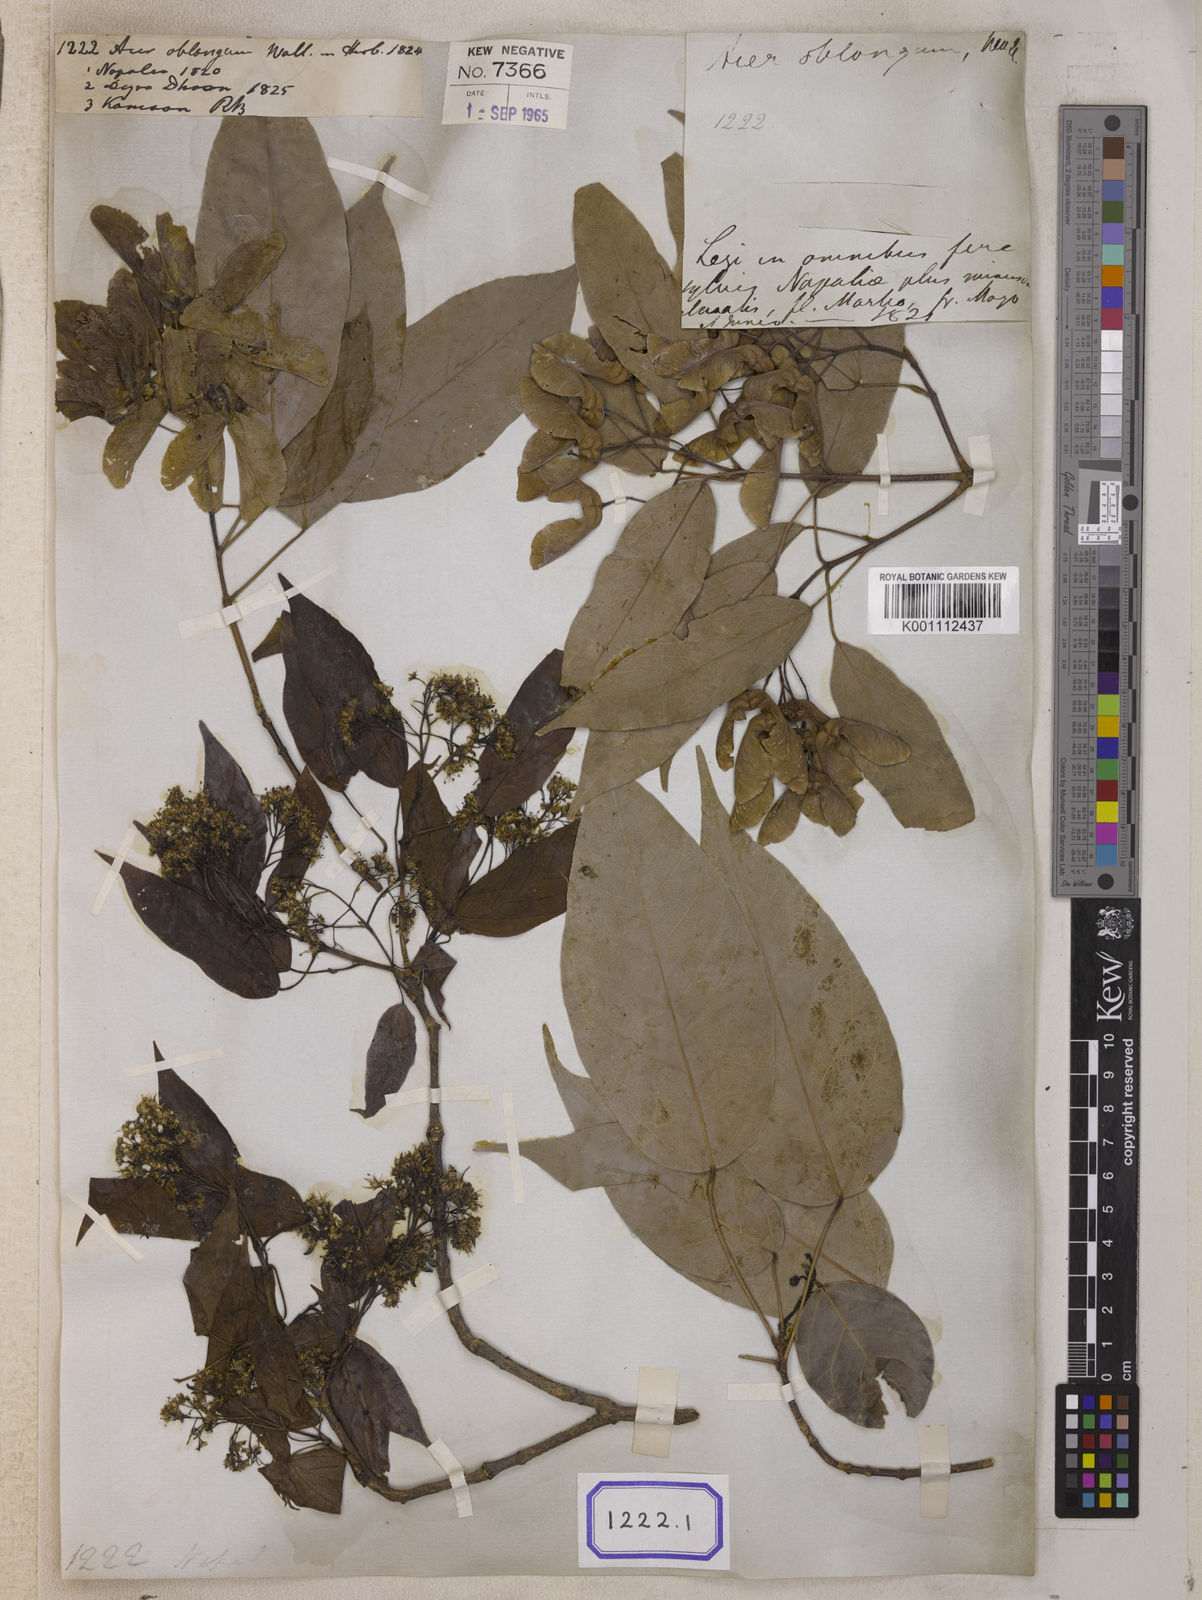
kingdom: Plantae
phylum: Tracheophyta
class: Magnoliopsida
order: Sapindales
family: Sapindaceae
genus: Acer
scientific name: Acer
